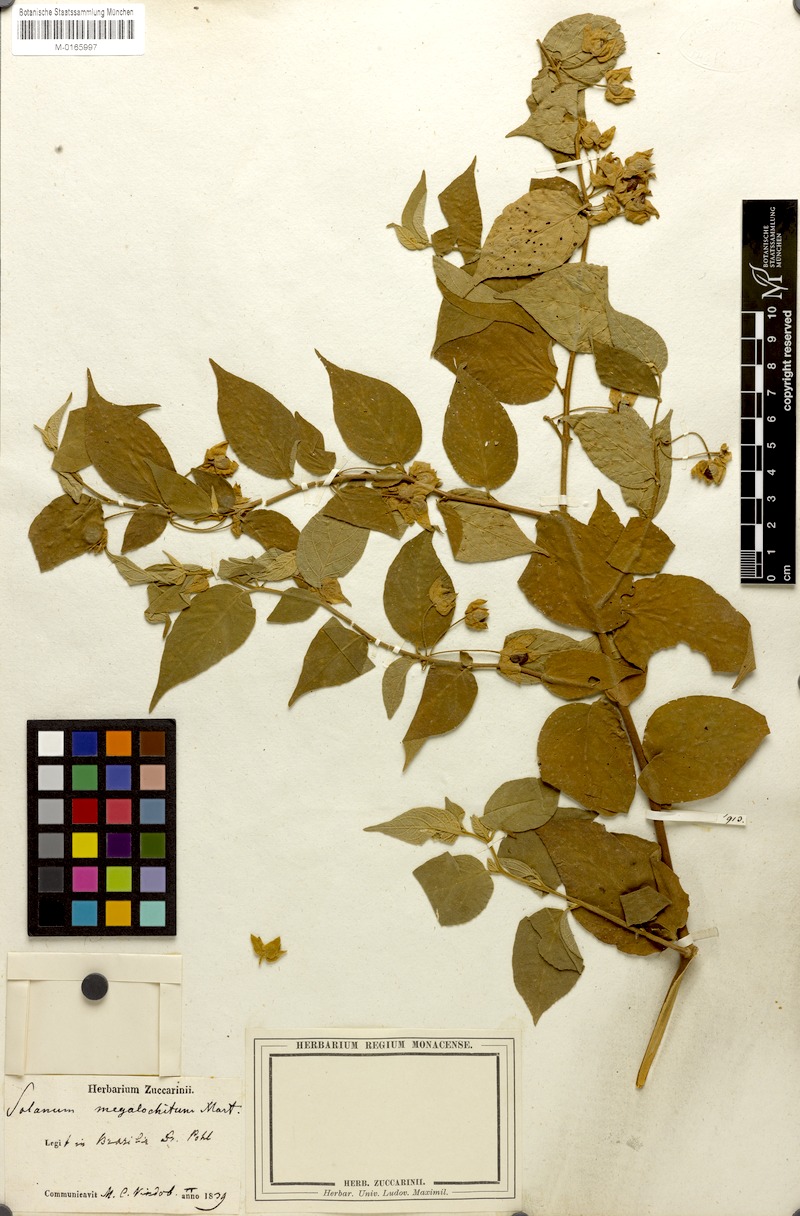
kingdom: Plantae
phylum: Tracheophyta
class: Magnoliopsida
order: Solanales
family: Solanaceae
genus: Solanum
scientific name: Solanum megalochiton
